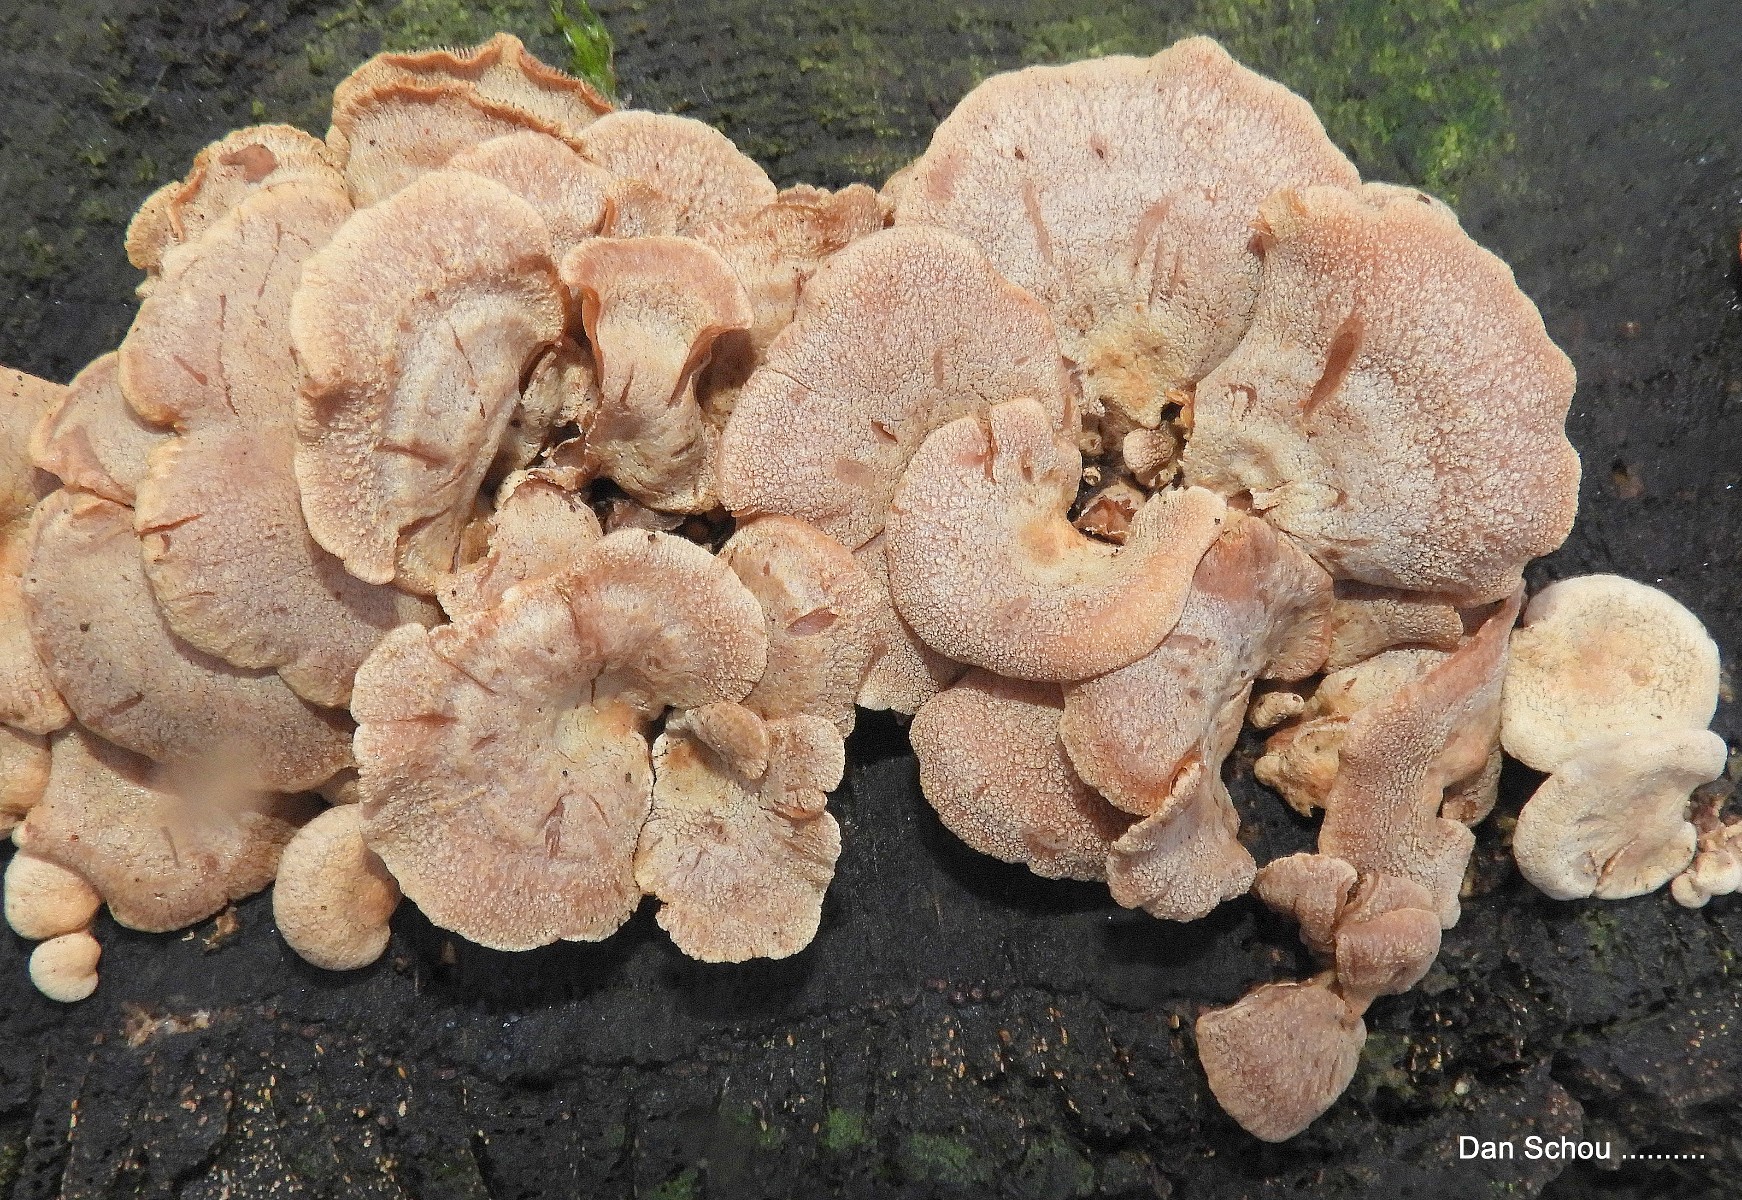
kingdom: Fungi
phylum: Basidiomycota
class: Agaricomycetes
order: Agaricales
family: Mycenaceae
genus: Panellus
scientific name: Panellus stipticus
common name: kliddet epaulethat
